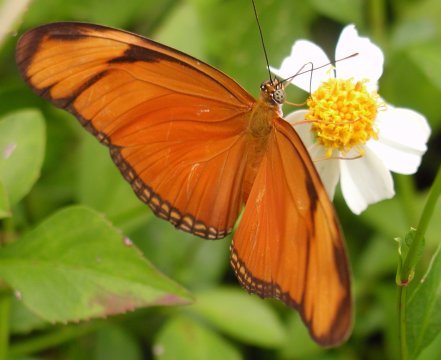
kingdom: Animalia
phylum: Arthropoda
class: Insecta
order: Lepidoptera
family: Nymphalidae
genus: Dryas
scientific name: Dryas iulia
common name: Julia
